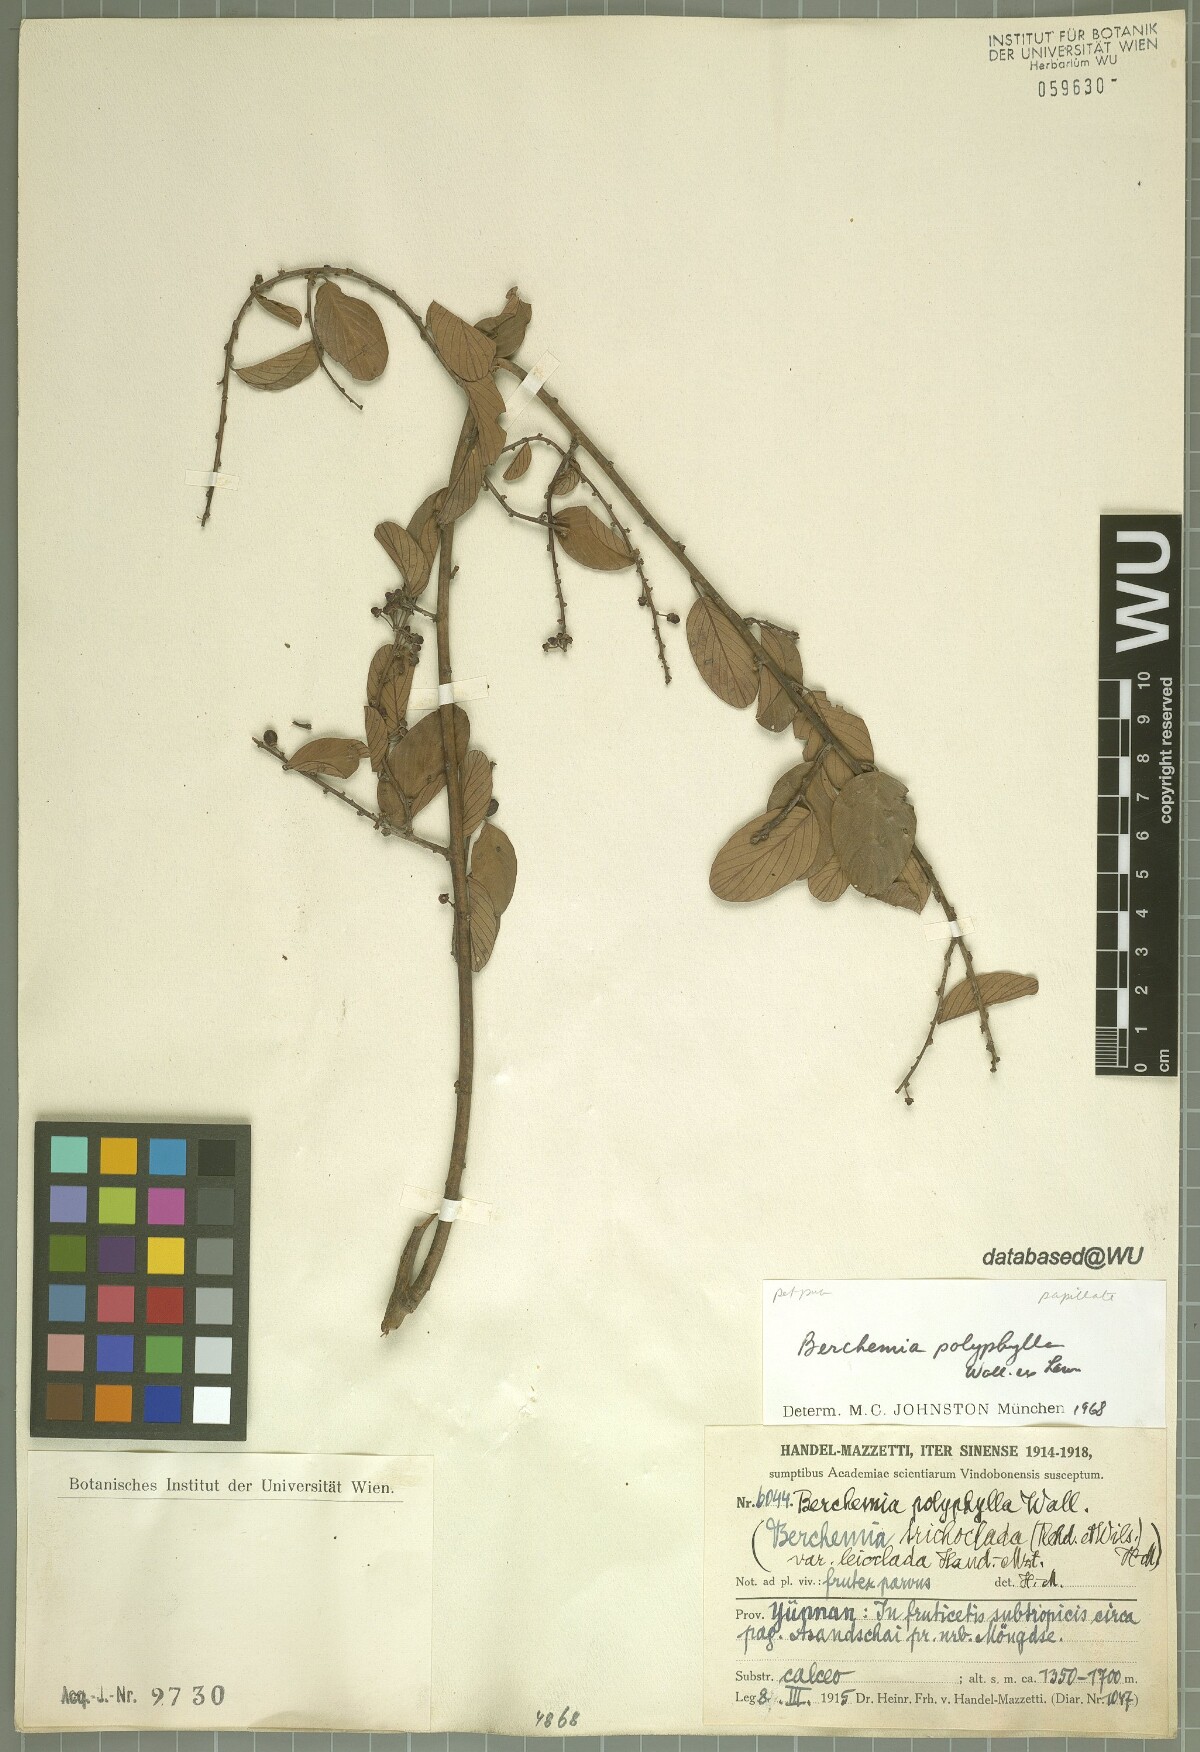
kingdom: Plantae
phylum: Tracheophyta
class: Magnoliopsida
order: Rosales
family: Rhamnaceae
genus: Berchemia
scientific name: Berchemia polyphylla
